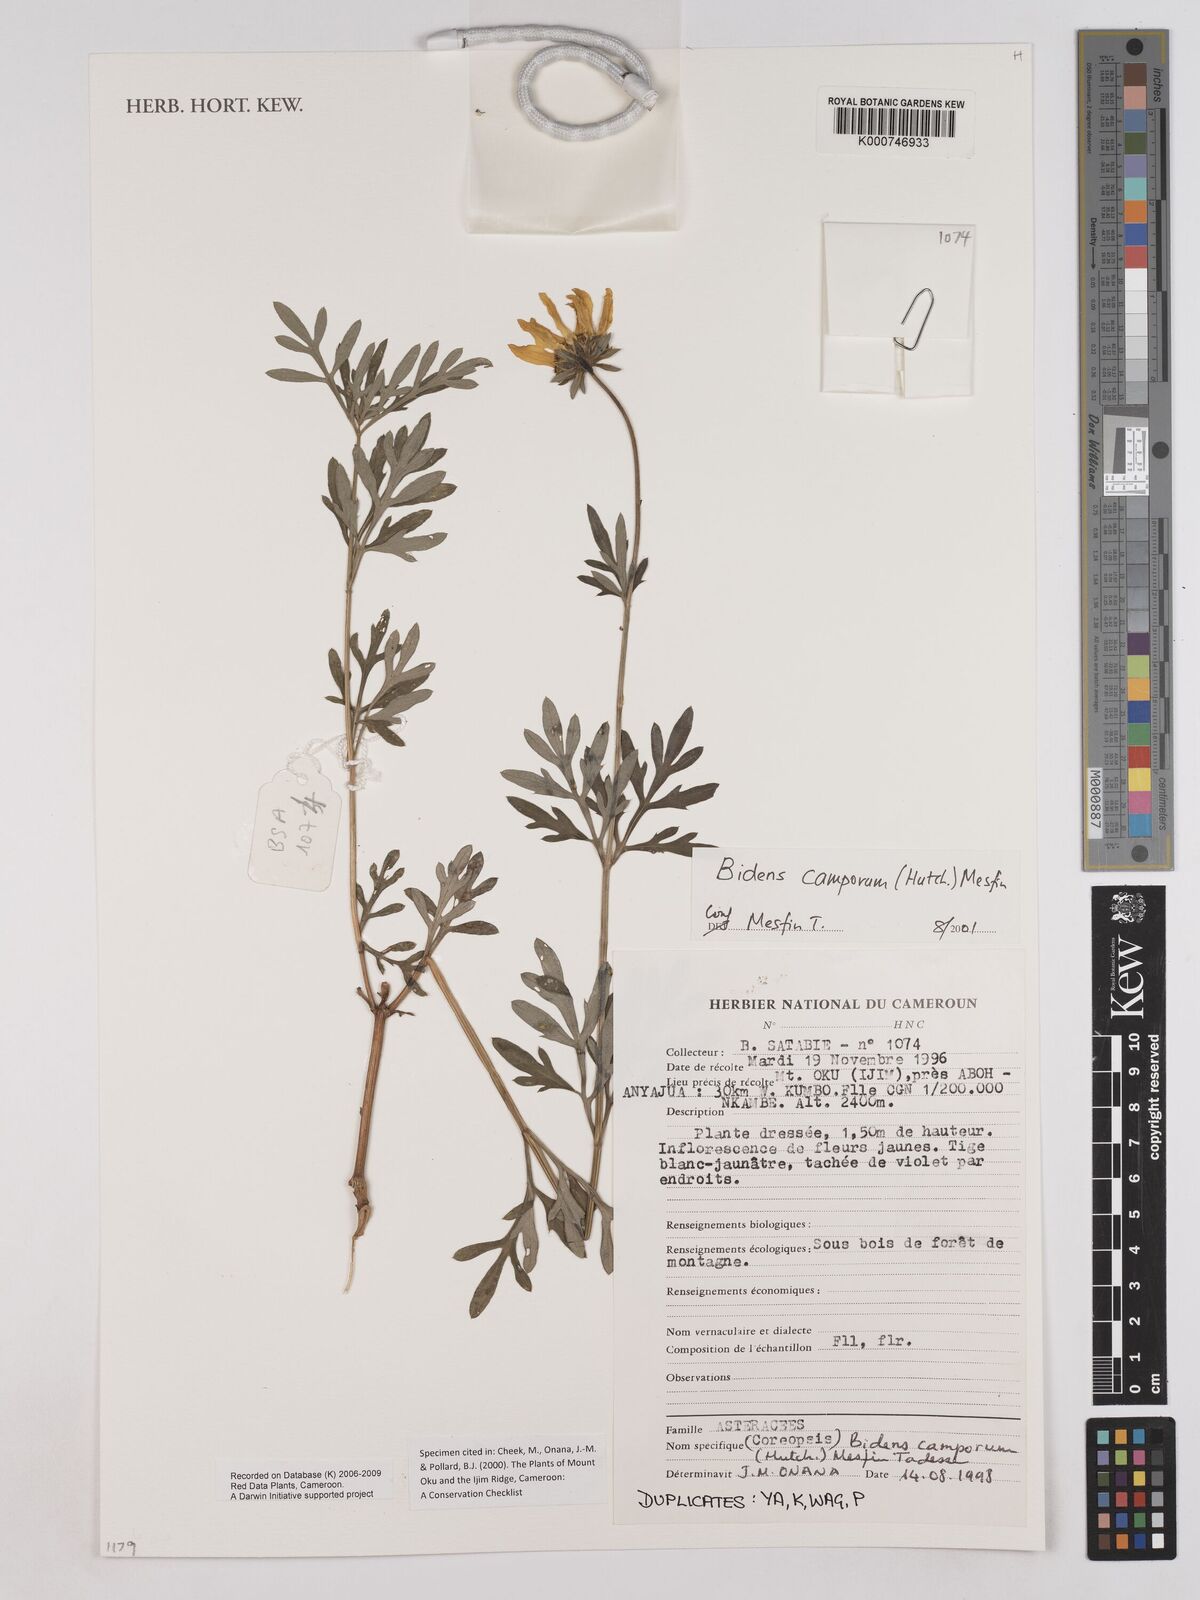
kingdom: Plantae
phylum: Tracheophyta
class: Magnoliopsida
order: Asterales
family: Asteraceae
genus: Bidens
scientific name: Bidens camporum
